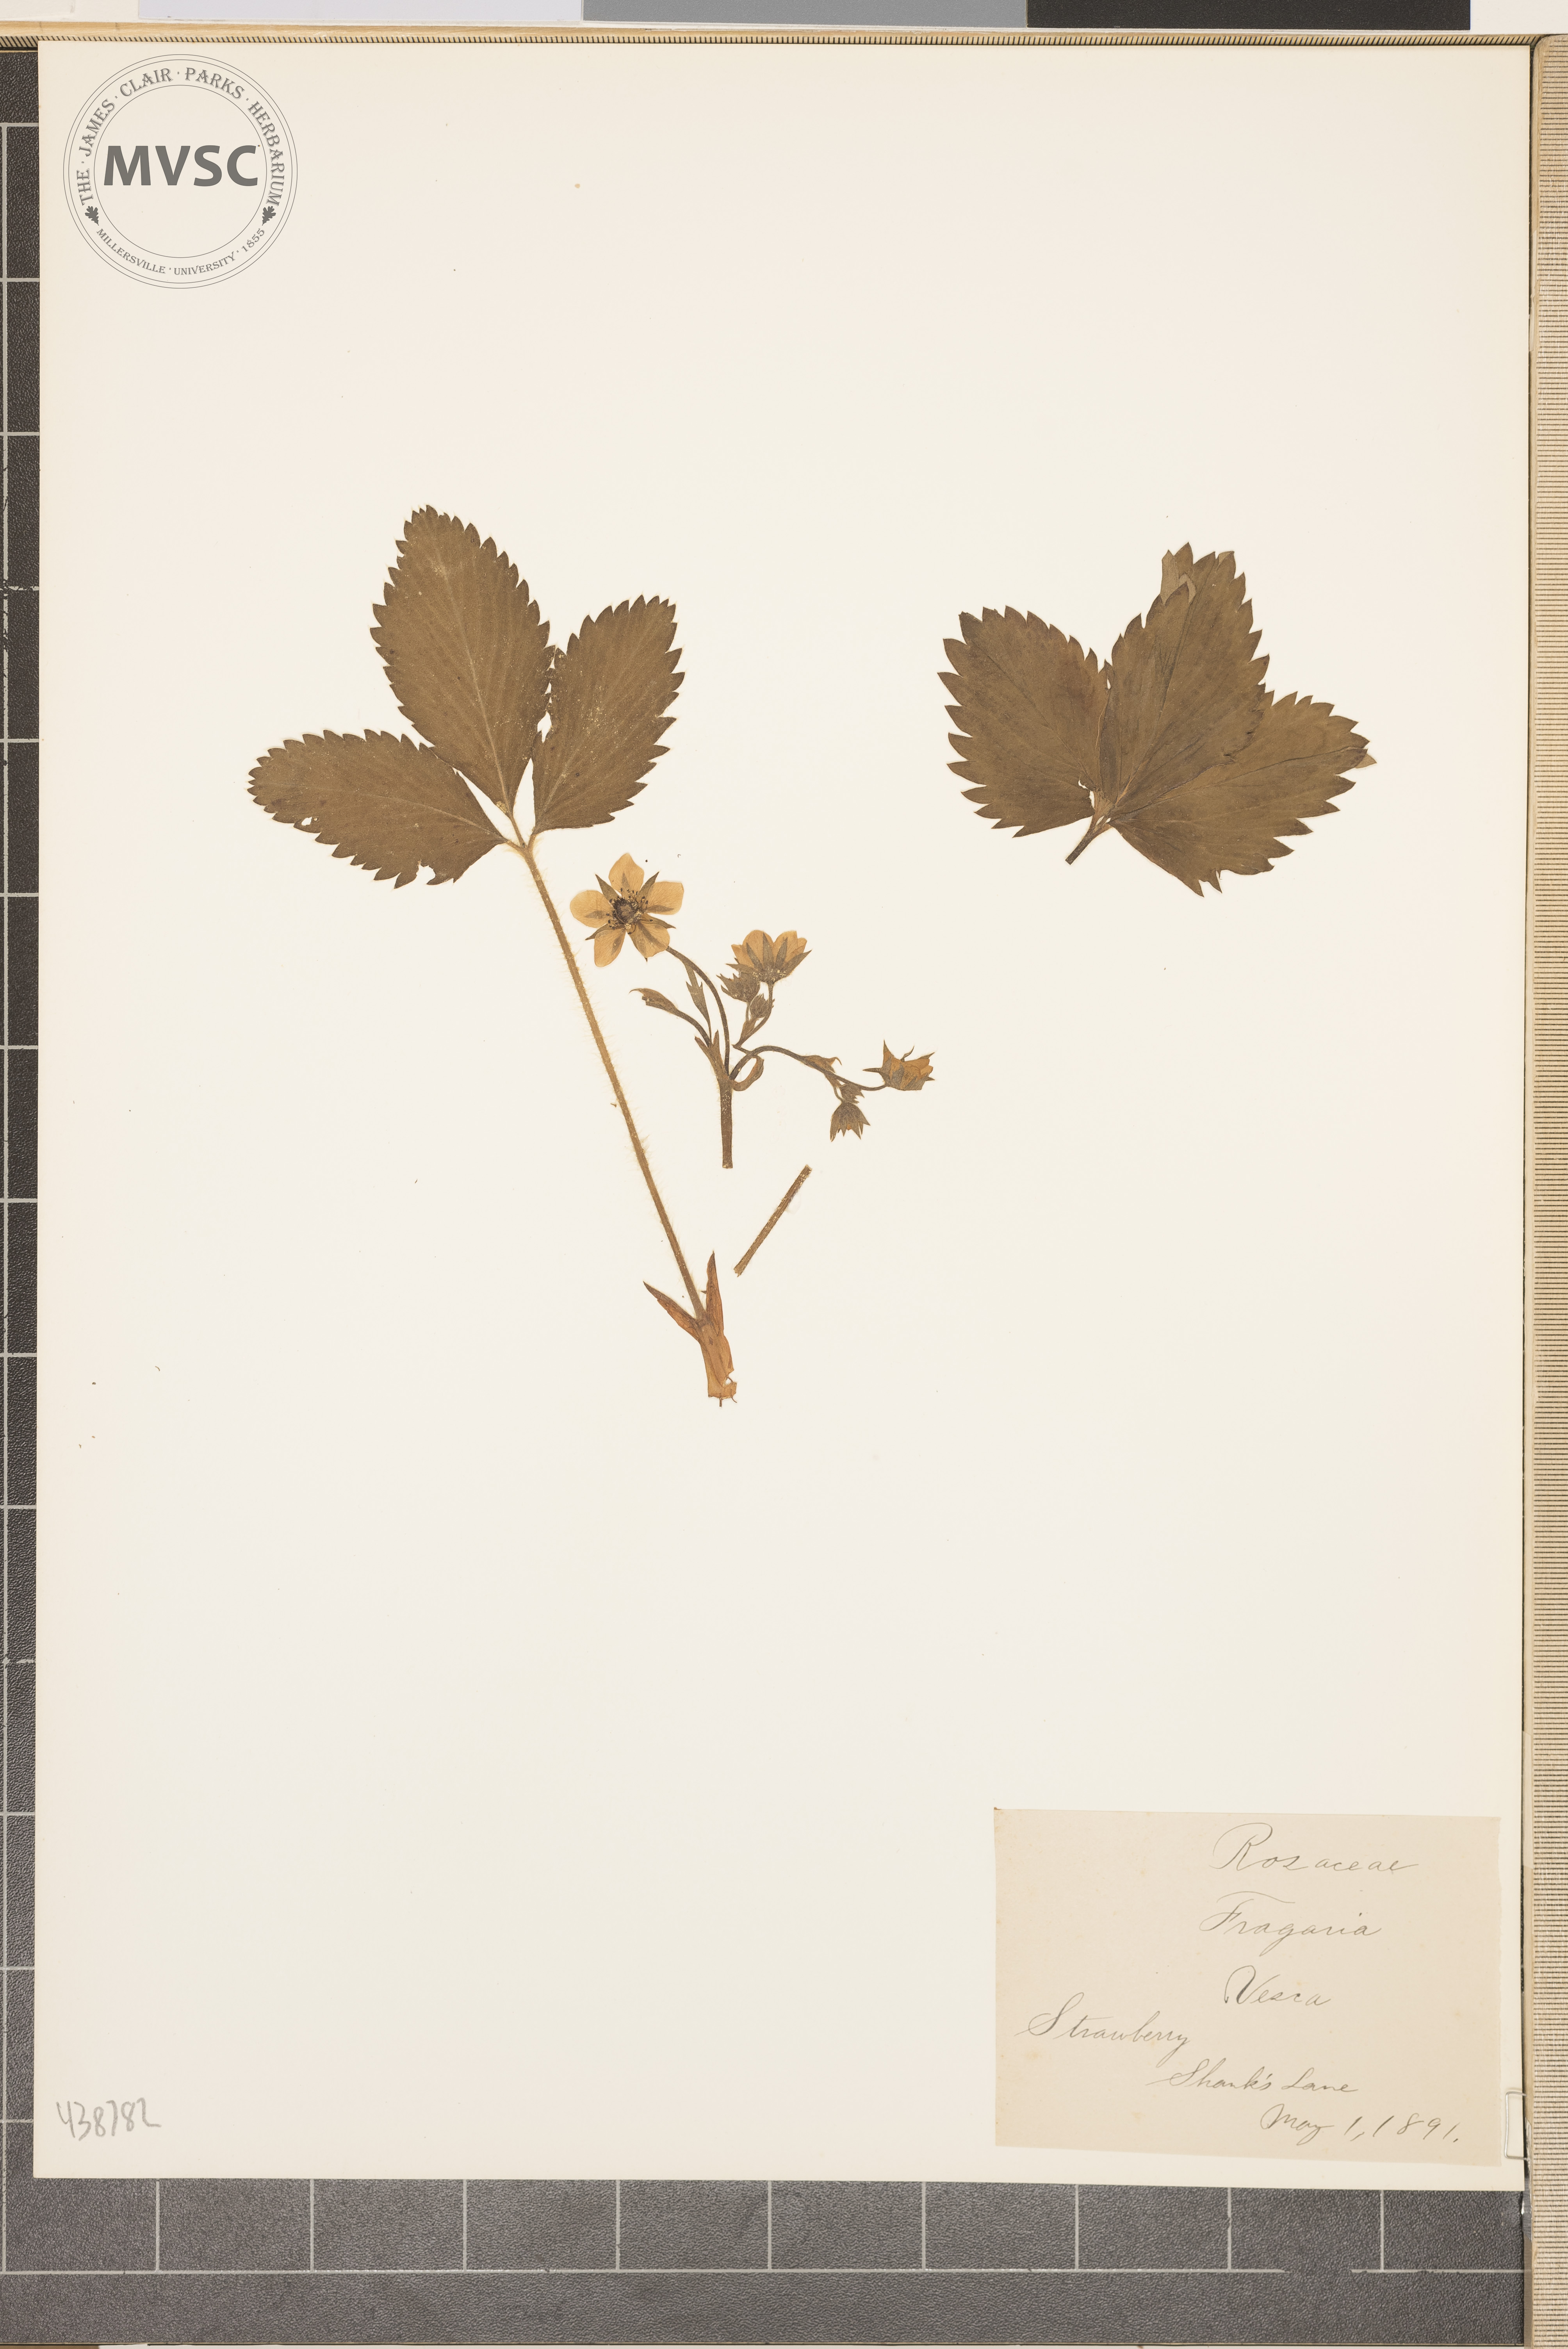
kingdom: Plantae
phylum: Tracheophyta
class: Magnoliopsida
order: Rosales
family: Rosaceae
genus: Fragaria
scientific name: Fragaria vesca
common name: Strawberry
